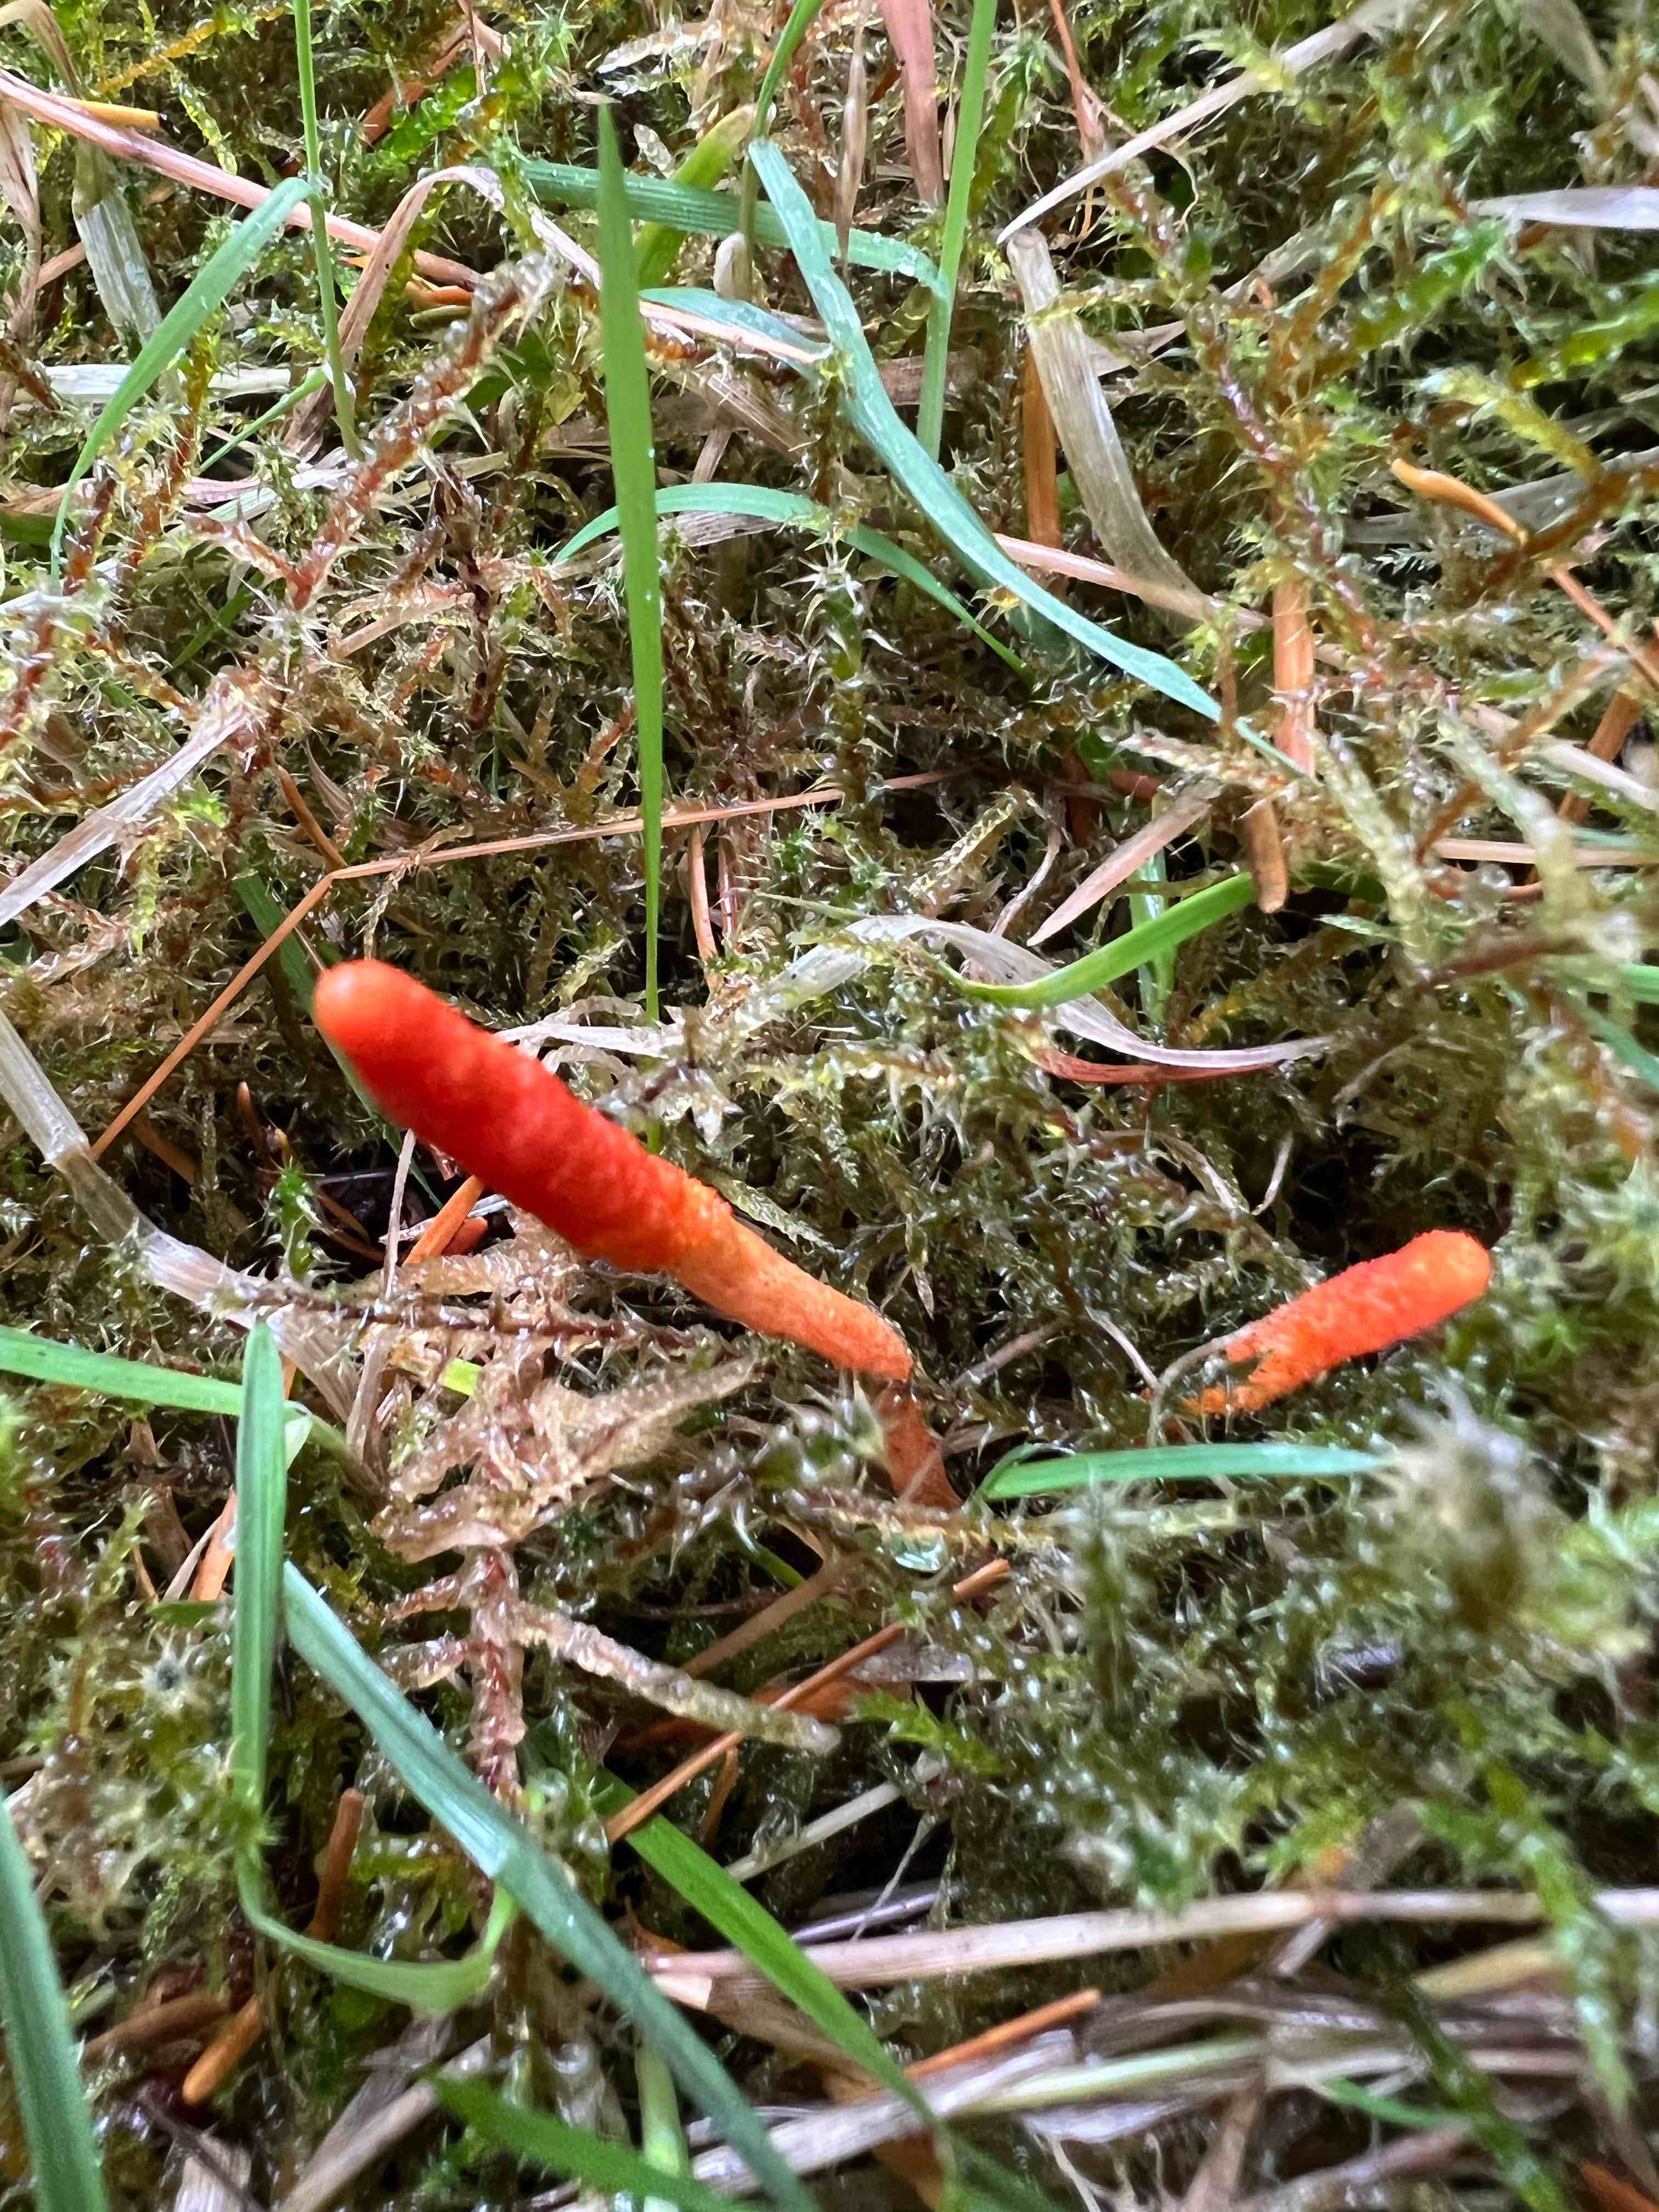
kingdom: Fungi
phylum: Ascomycota
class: Sordariomycetes
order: Hypocreales
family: Cordycipitaceae
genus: Cordyceps
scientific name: Cordyceps militaris
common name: puppe-snyltekølle
